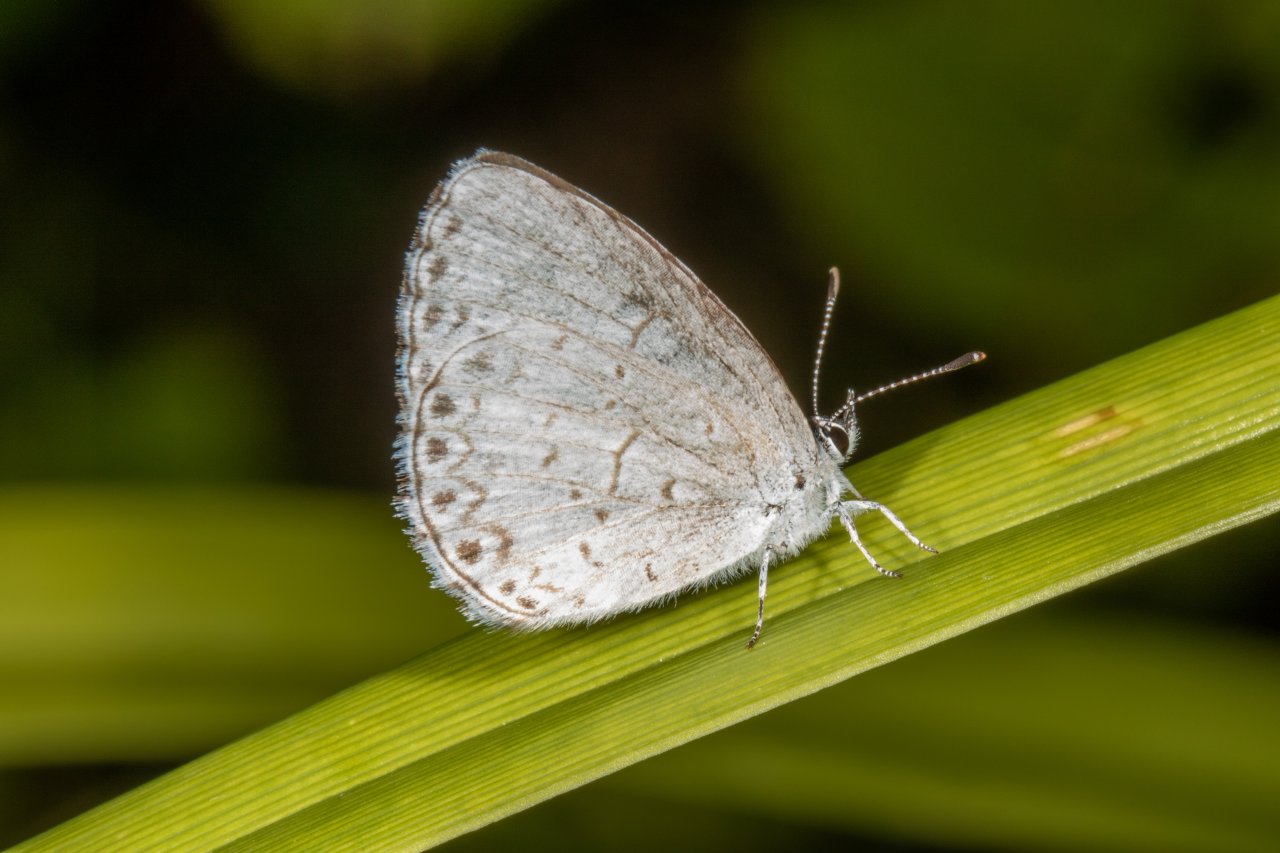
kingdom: Animalia
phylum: Arthropoda
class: Insecta
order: Lepidoptera
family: Lycaenidae
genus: Celastrina
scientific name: Celastrina lucia
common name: Northern Spring Azure
